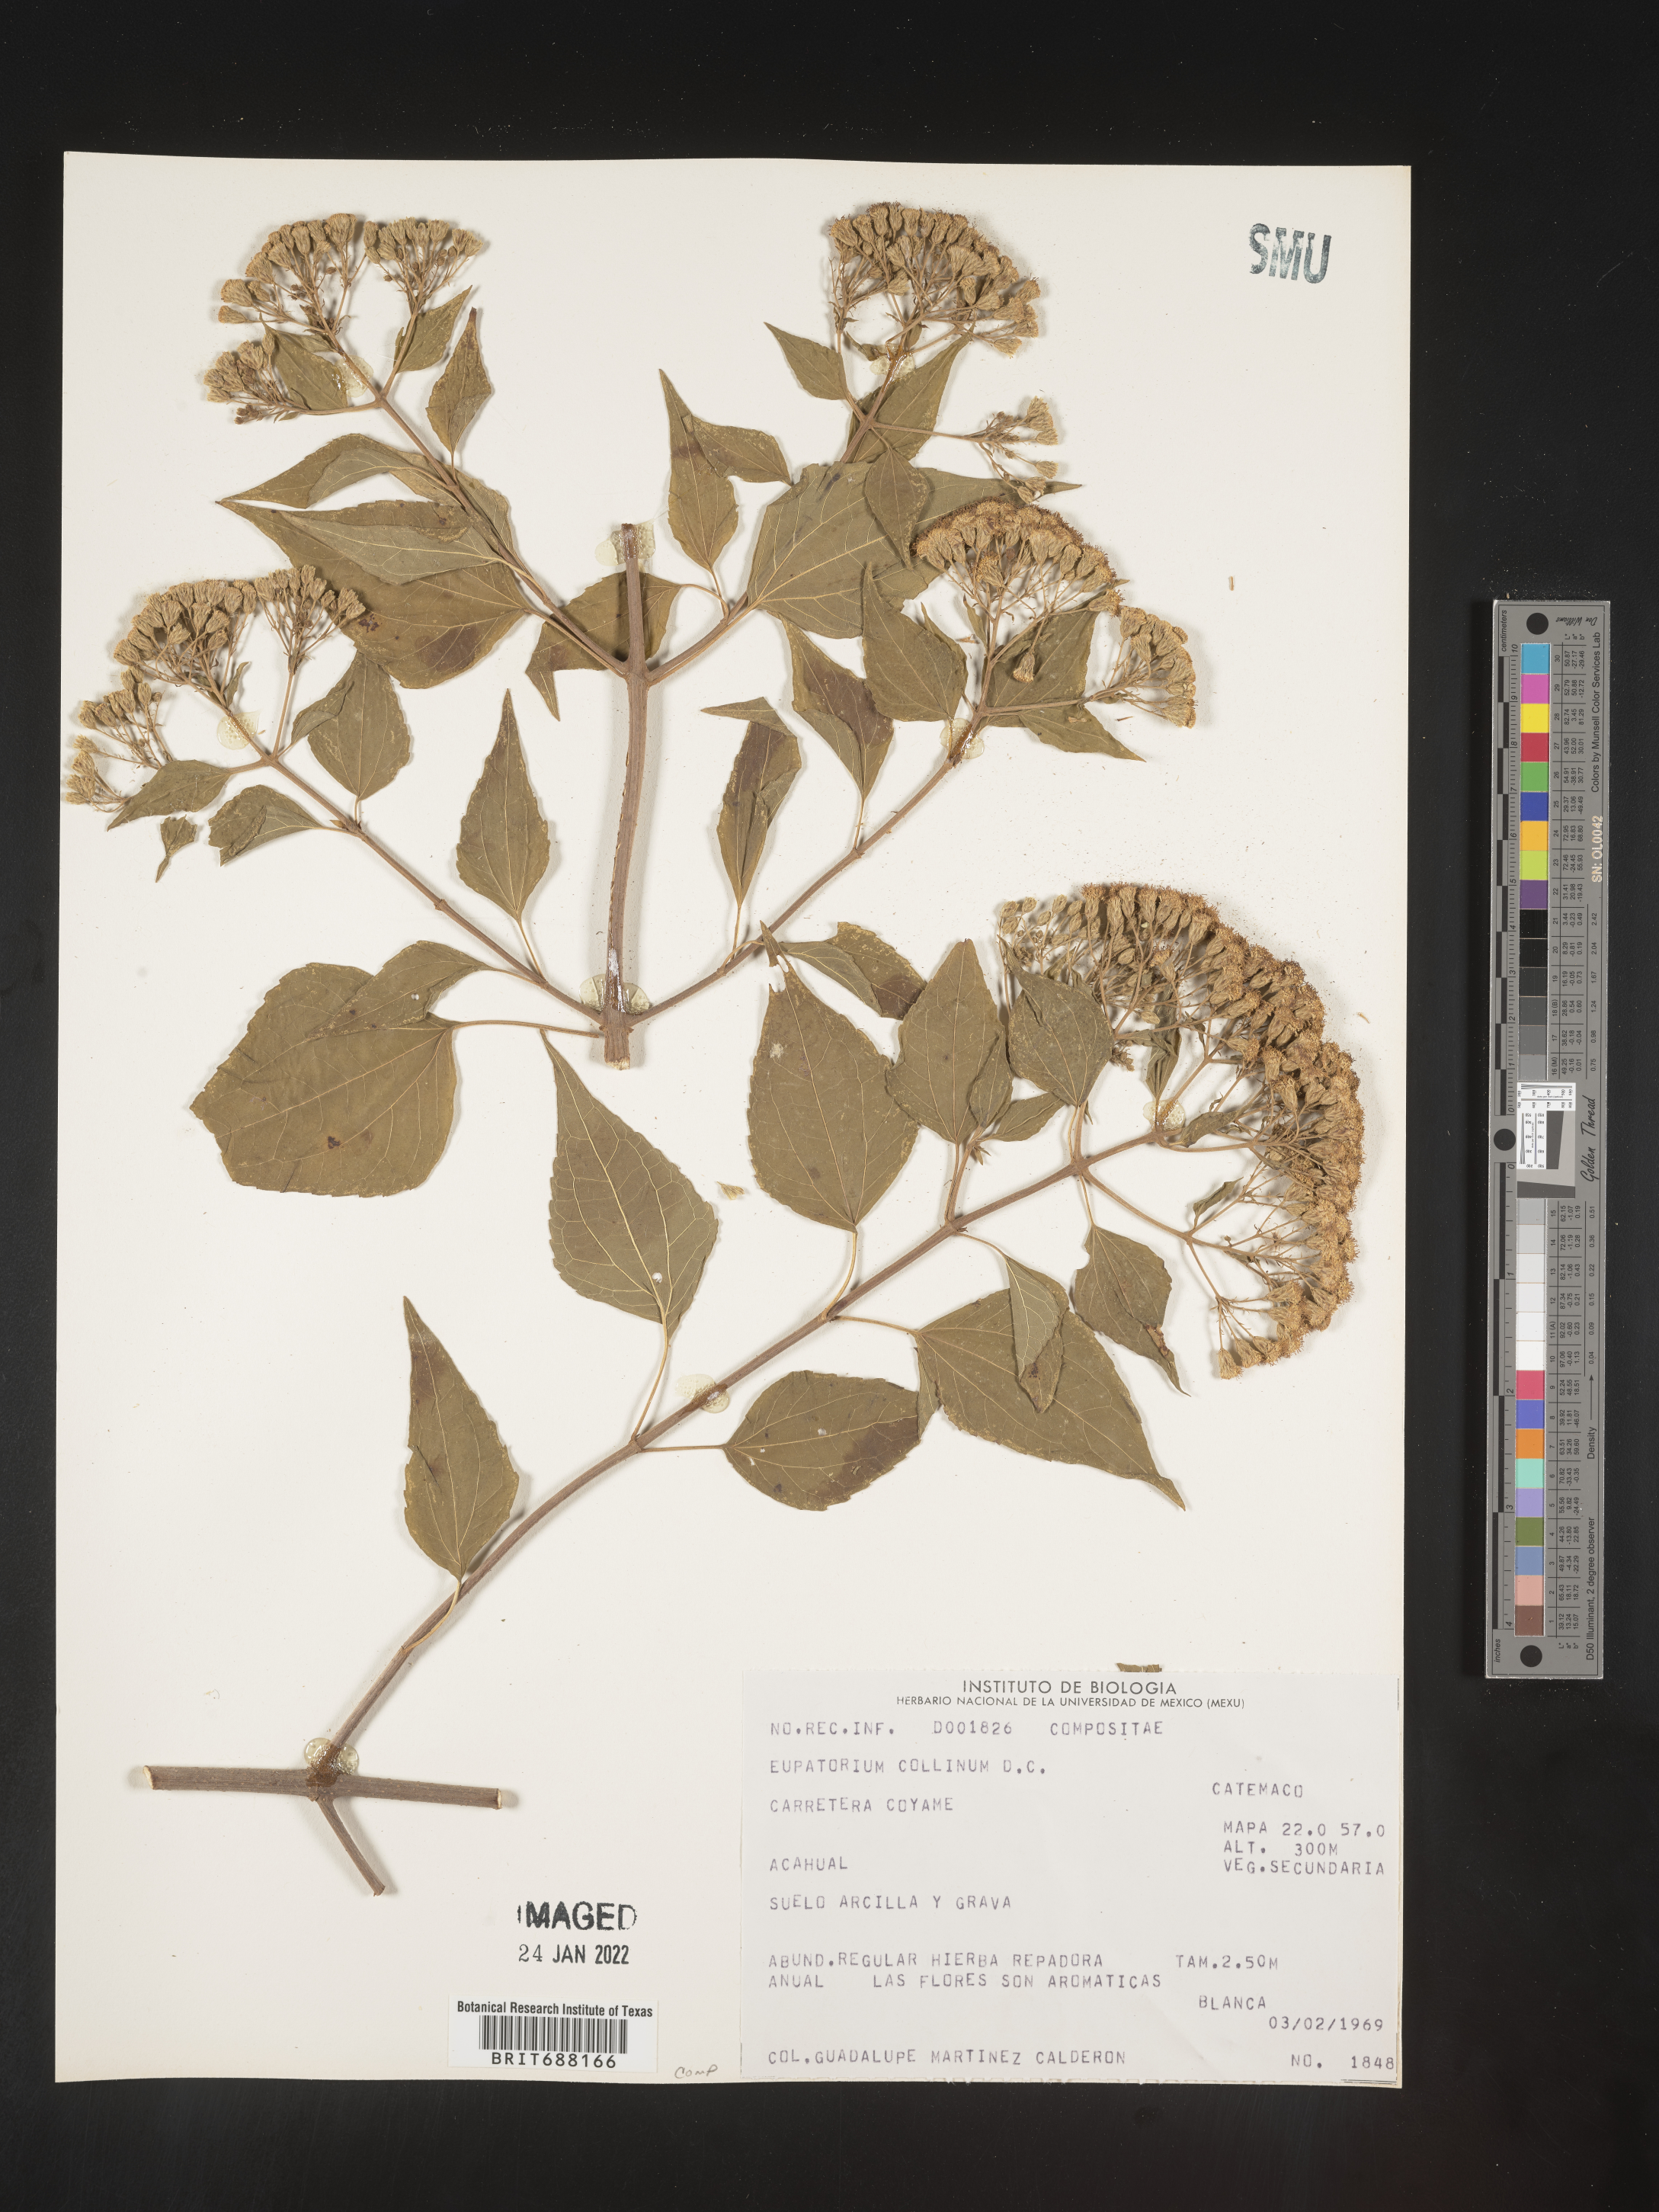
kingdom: Plantae
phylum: Tracheophyta
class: Magnoliopsida
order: Asterales
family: Asteraceae
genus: Chromolaena
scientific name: Chromolaena collina
